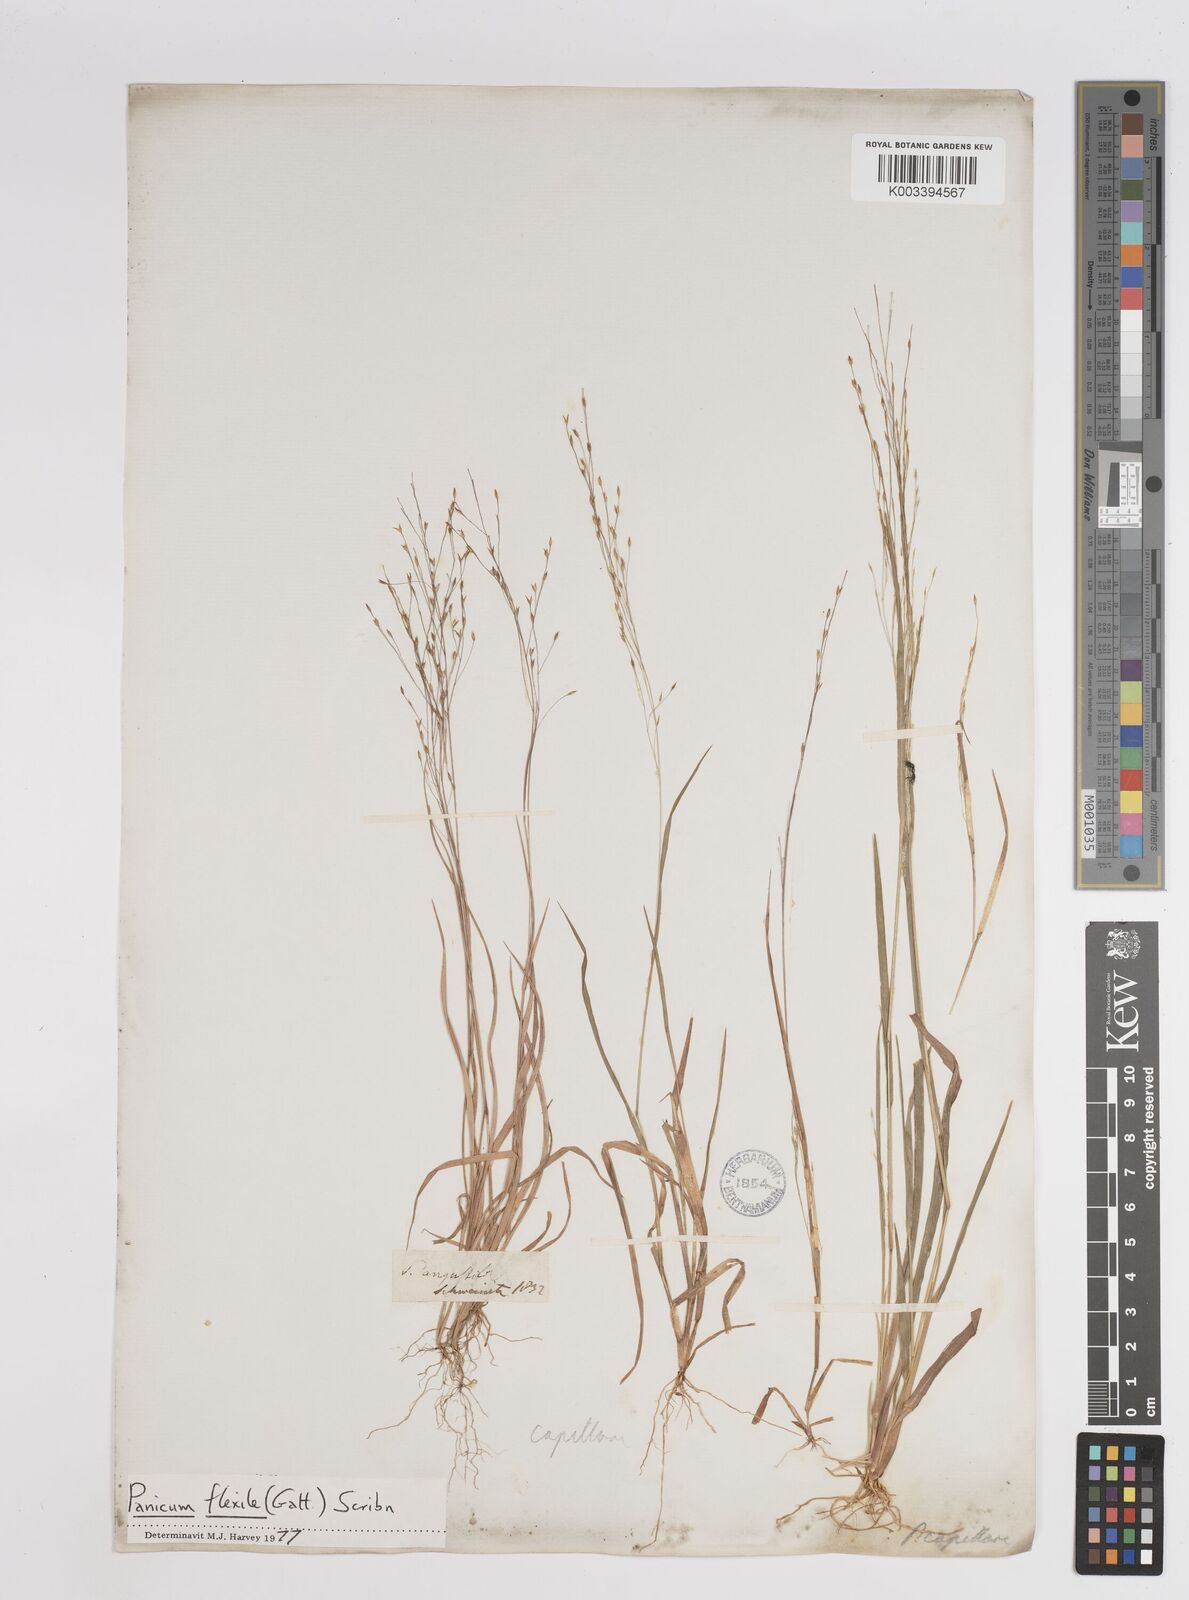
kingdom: Plantae
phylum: Tracheophyta
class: Liliopsida
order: Poales
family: Poaceae
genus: Panicum
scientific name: Panicum flexile
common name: Wiry panicgrass
